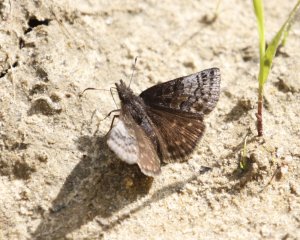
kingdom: Animalia
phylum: Arthropoda
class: Insecta
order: Lepidoptera
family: Hesperiidae
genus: Erynnis
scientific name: Erynnis icelus
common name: Dreamy Duskywing
